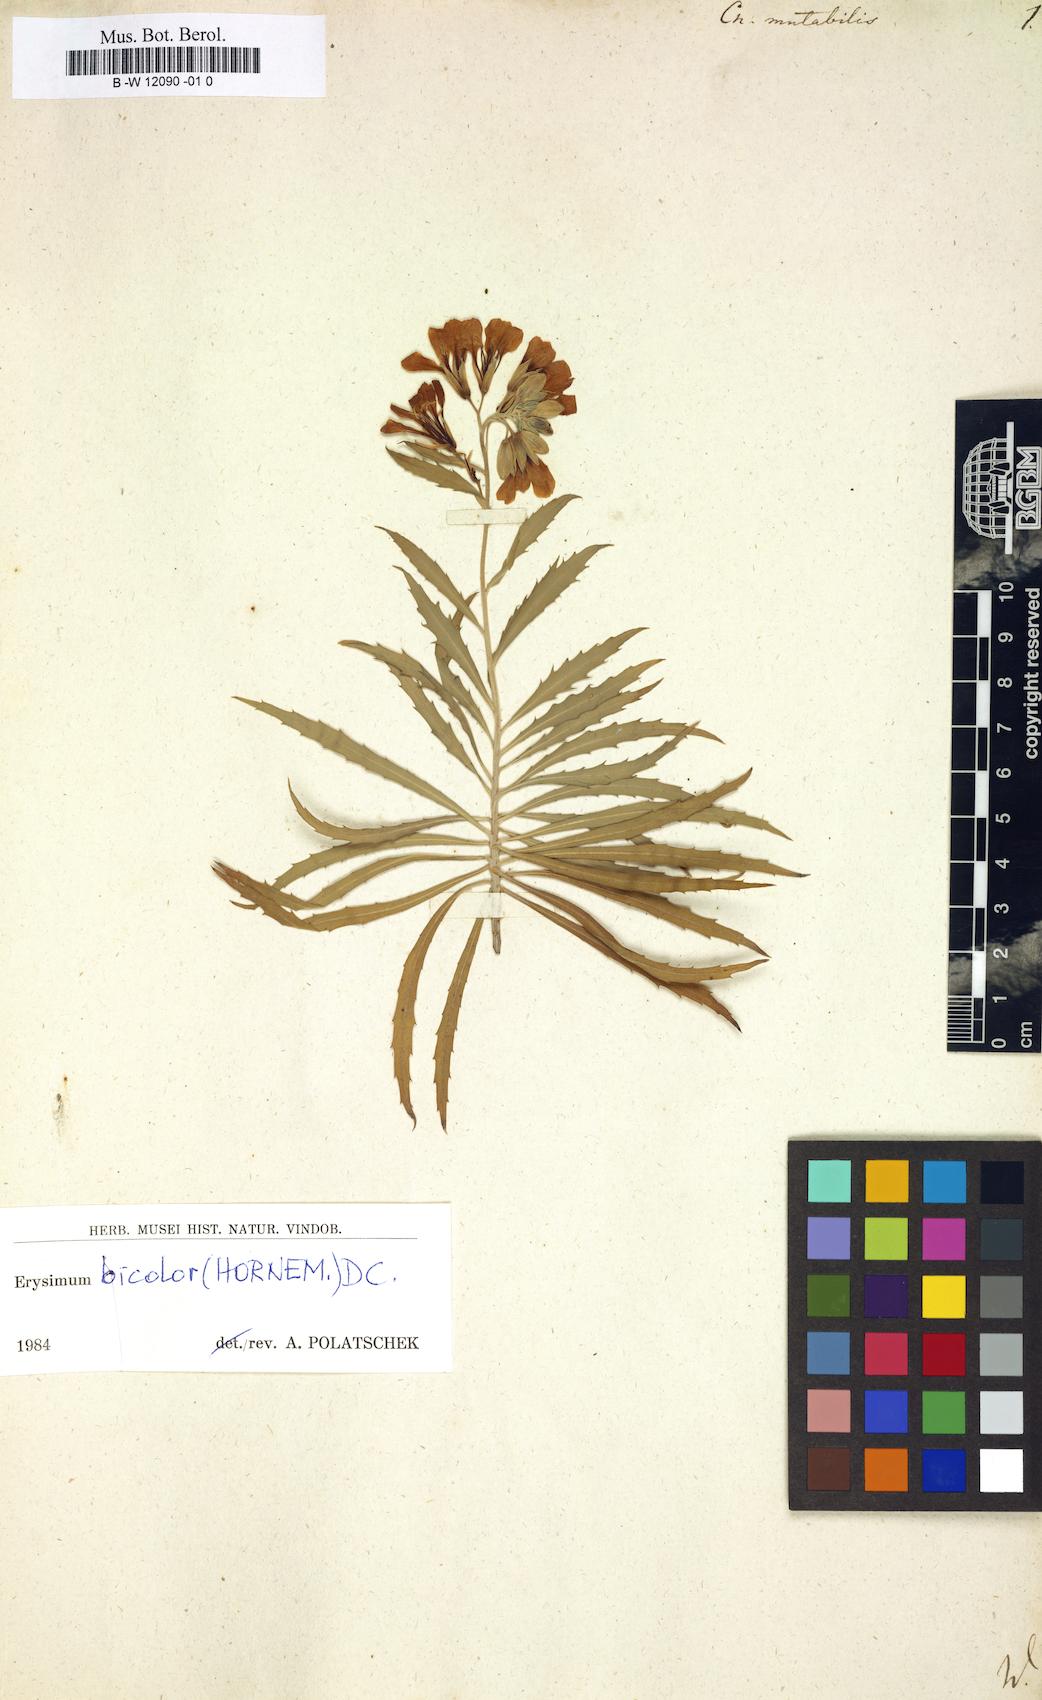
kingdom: Plantae
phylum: Tracheophyta
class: Magnoliopsida
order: Brassicales
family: Brassicaceae
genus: Erysimum
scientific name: Erysimum bicolor
